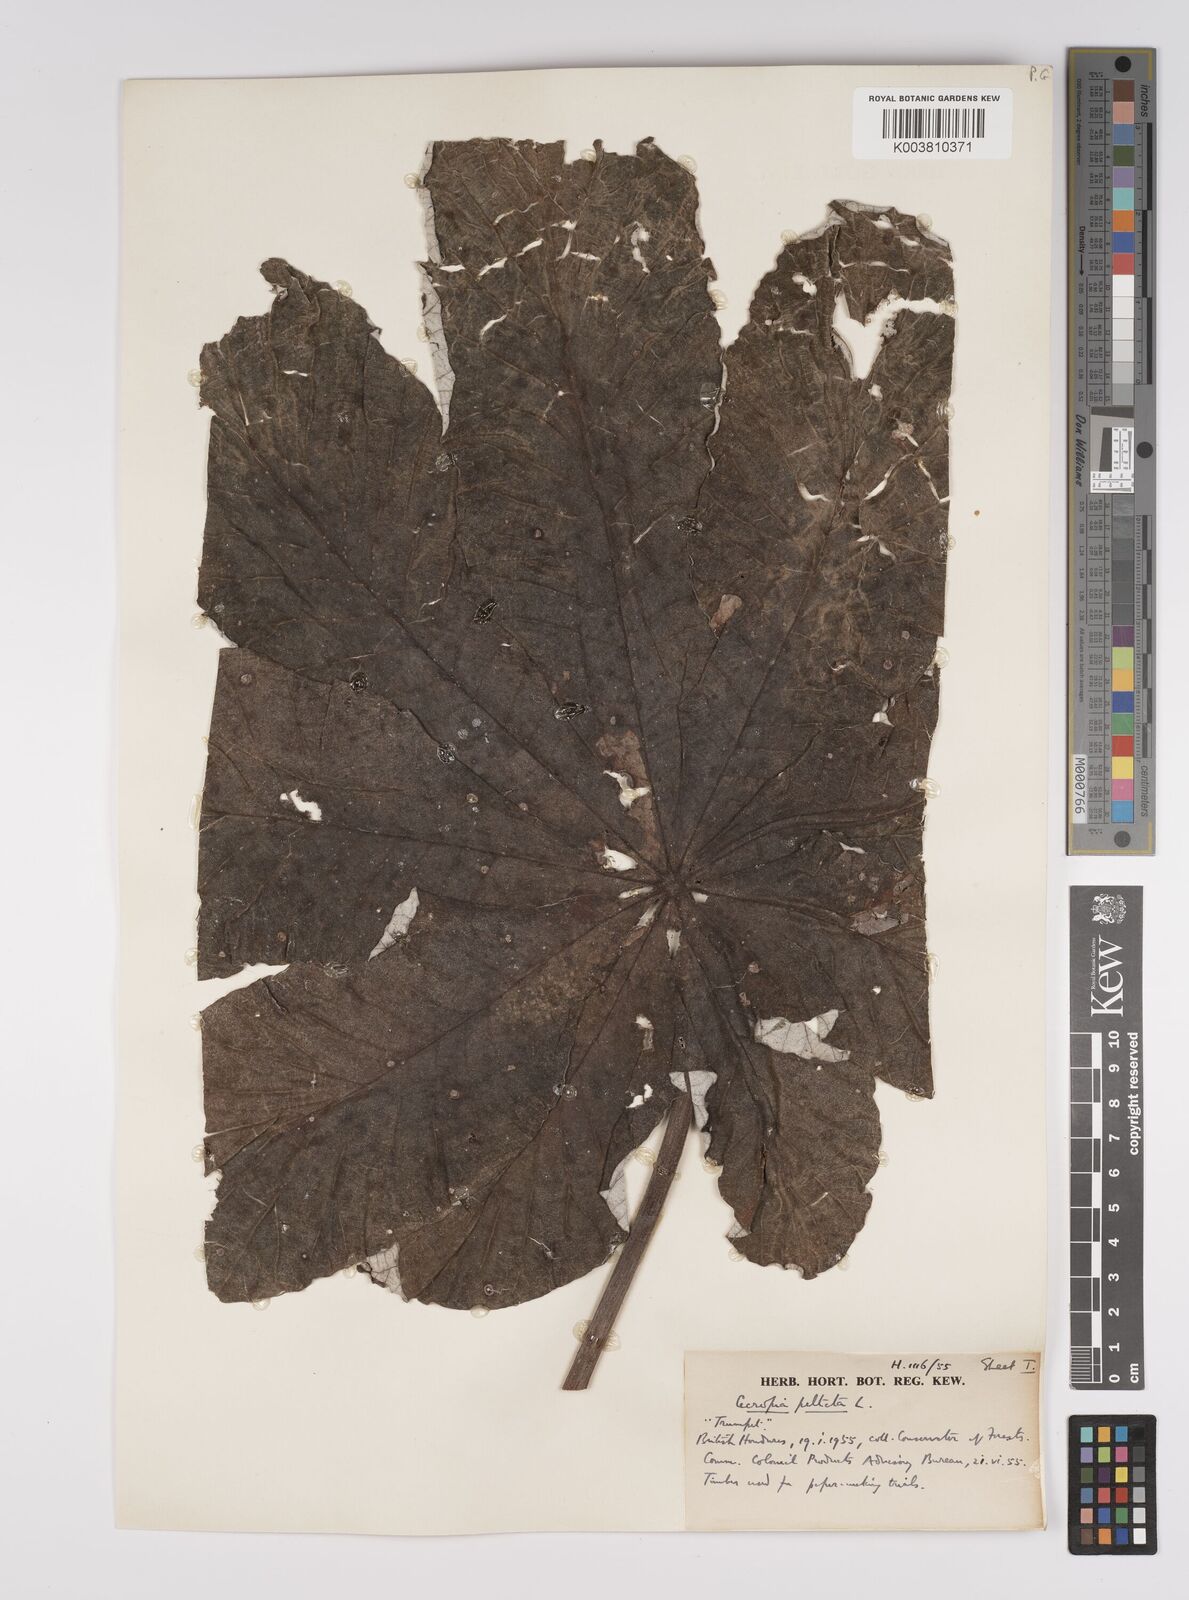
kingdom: Plantae
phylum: Tracheophyta
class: Magnoliopsida
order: Rosales
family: Urticaceae
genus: Cecropia
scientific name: Cecropia peltata
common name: Trumpet-tree
